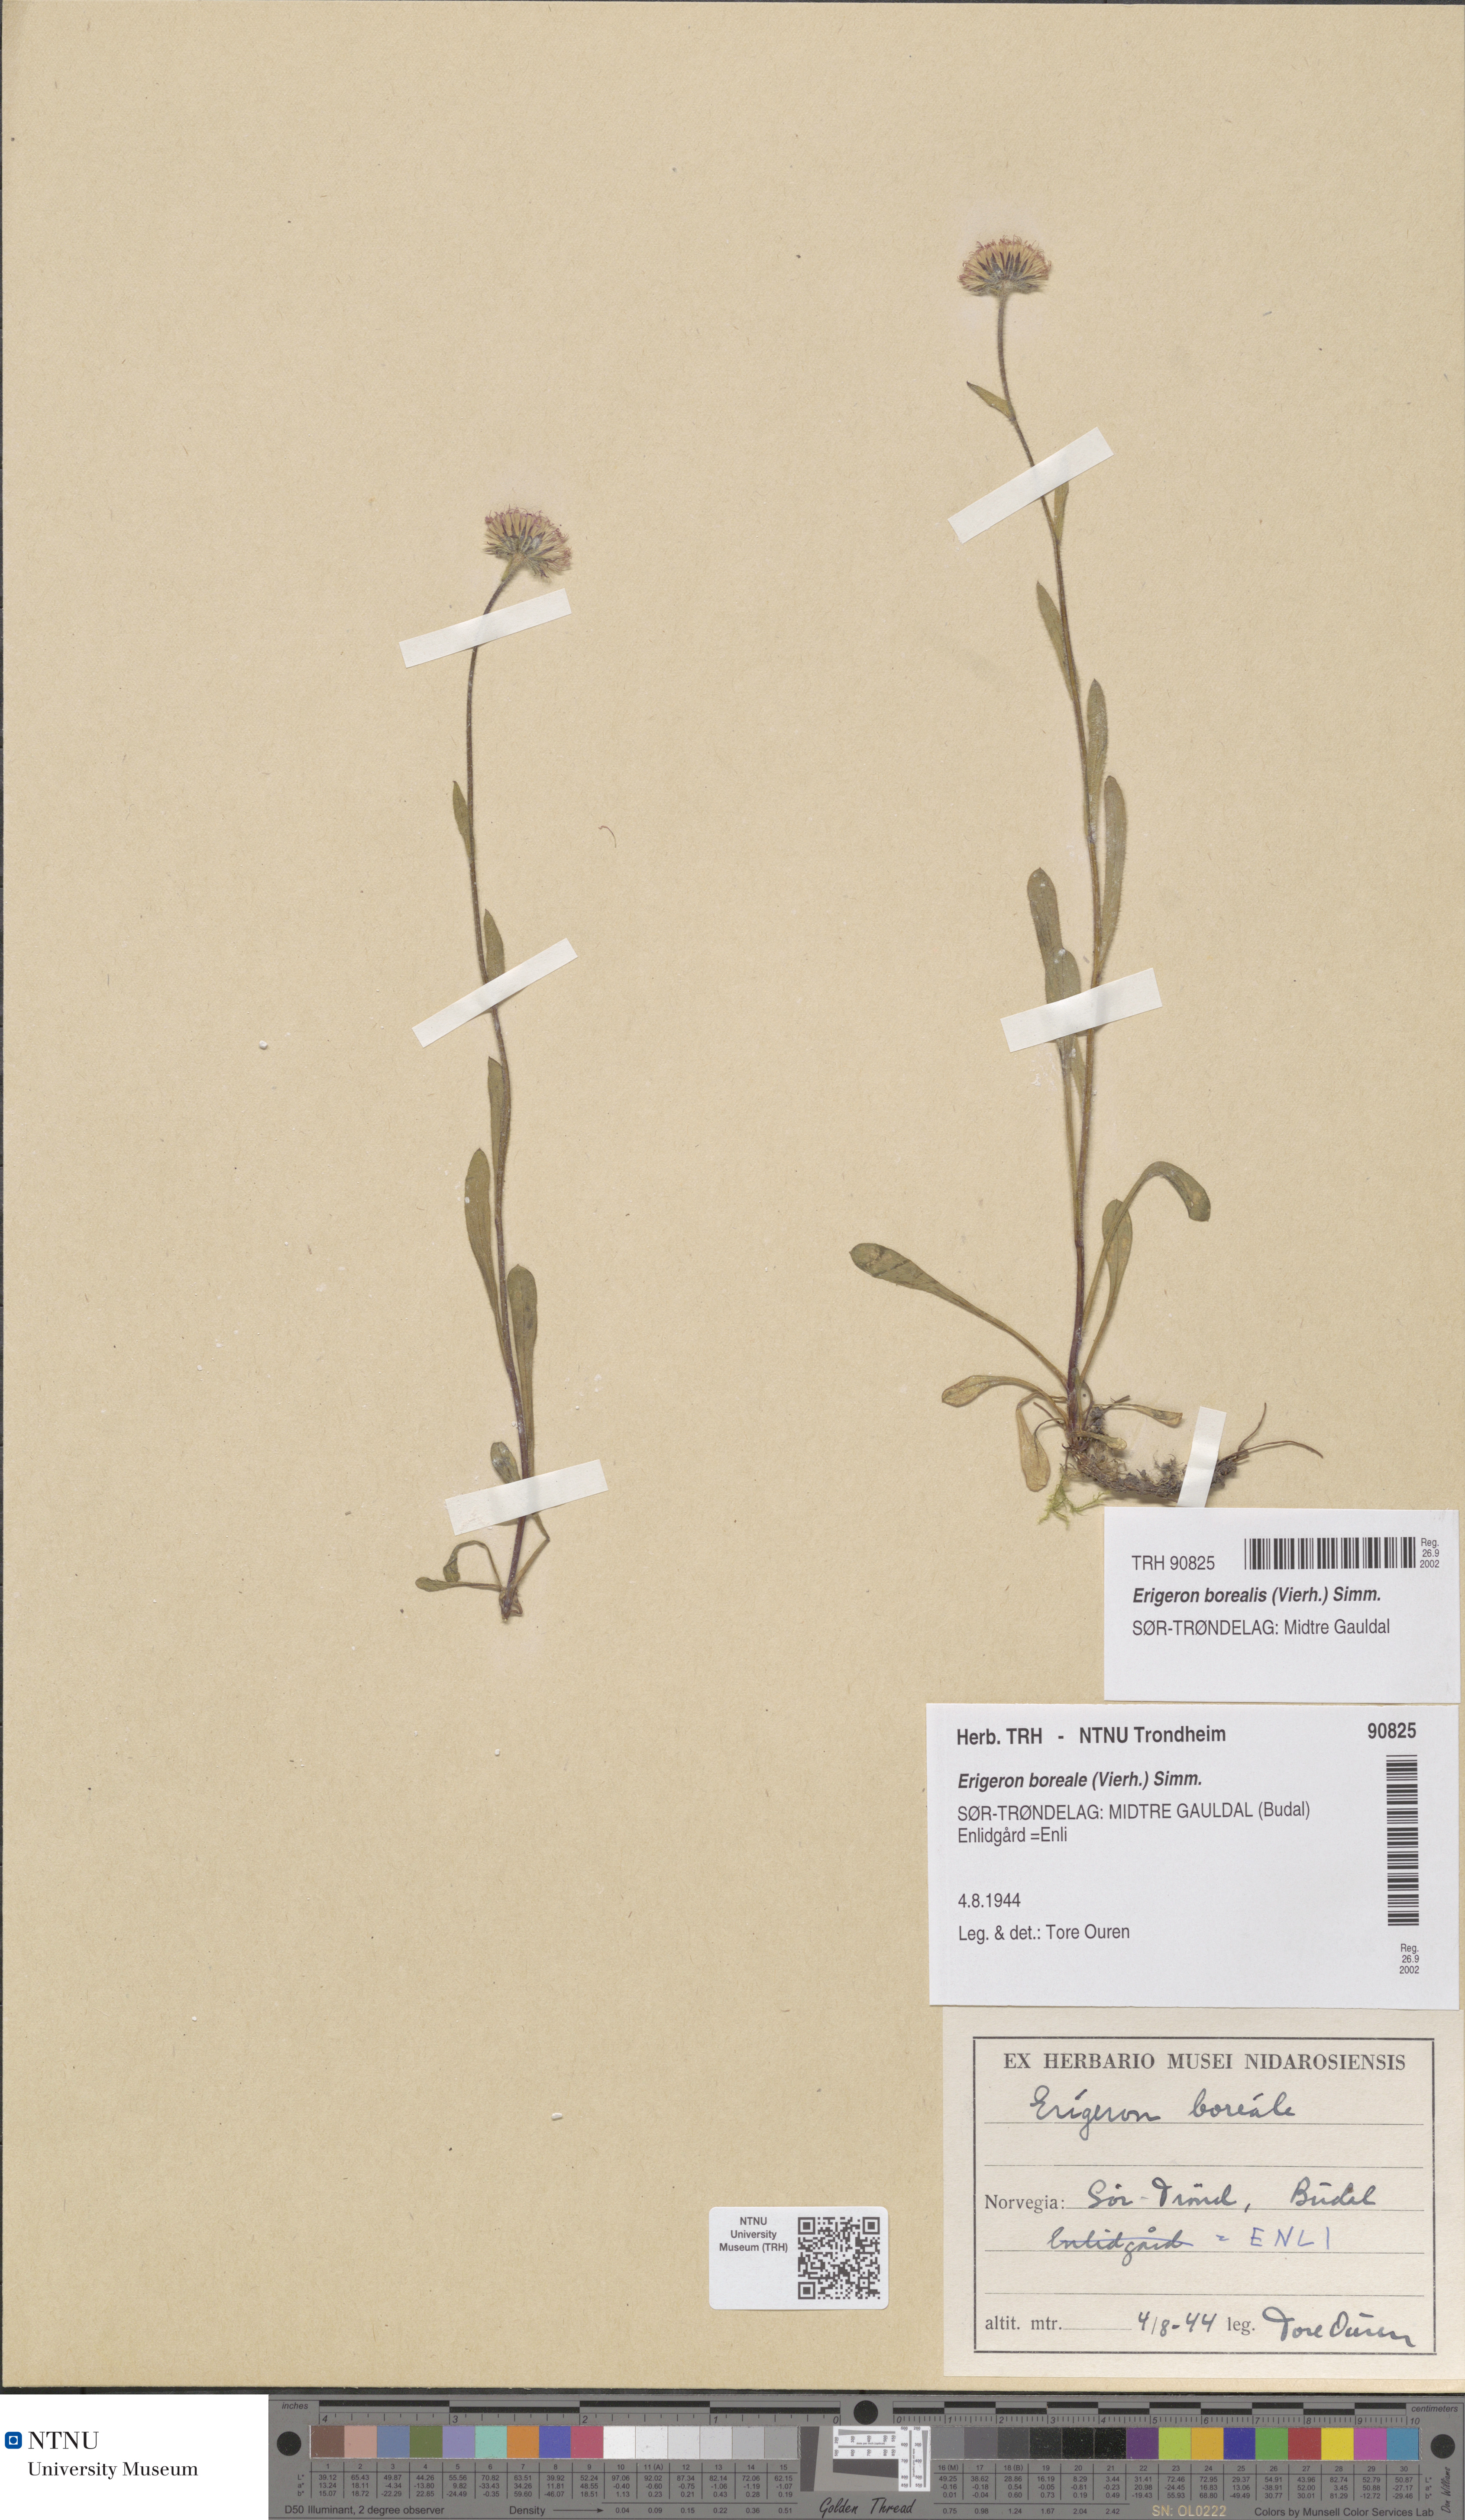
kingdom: Plantae
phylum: Tracheophyta
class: Magnoliopsida
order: Asterales
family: Asteraceae
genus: Erigeron
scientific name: Erigeron borealis
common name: Alpine fleabane
